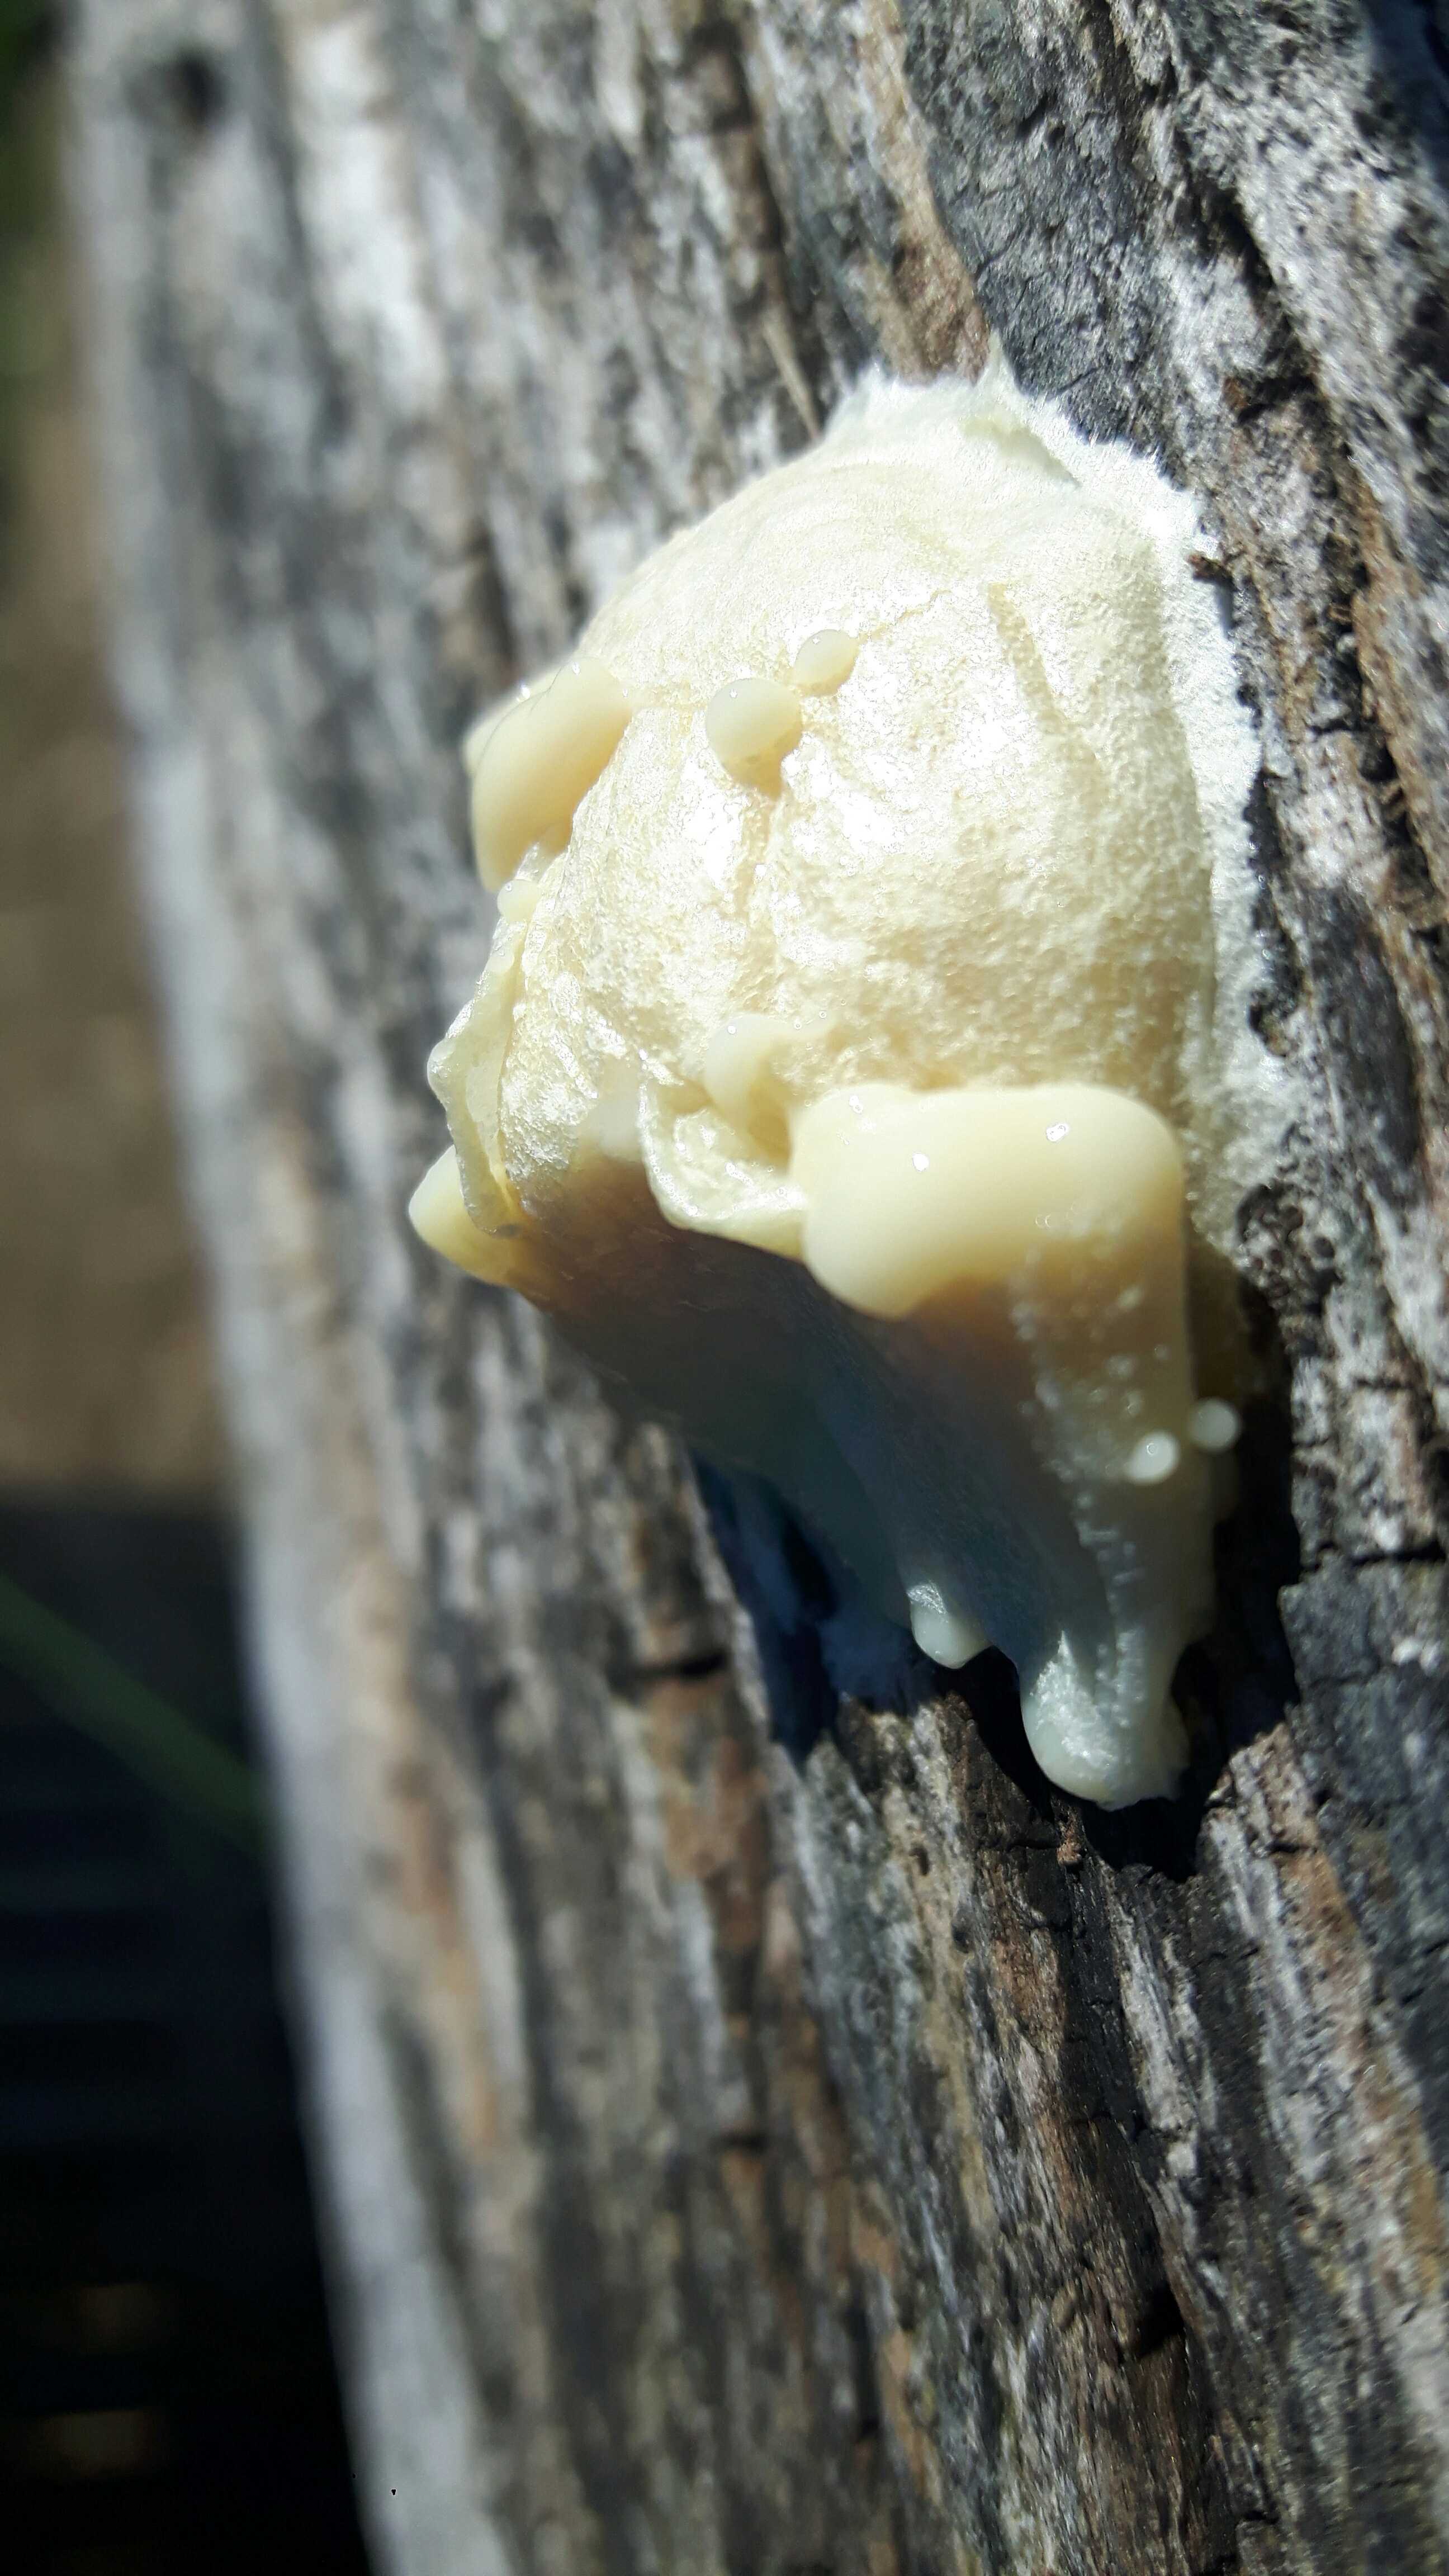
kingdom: Protozoa
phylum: Mycetozoa
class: Myxomycetes
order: Cribrariales
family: Tubiferaceae
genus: Reticularia
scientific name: Reticularia lycoperdon
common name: skinnende støvpude
